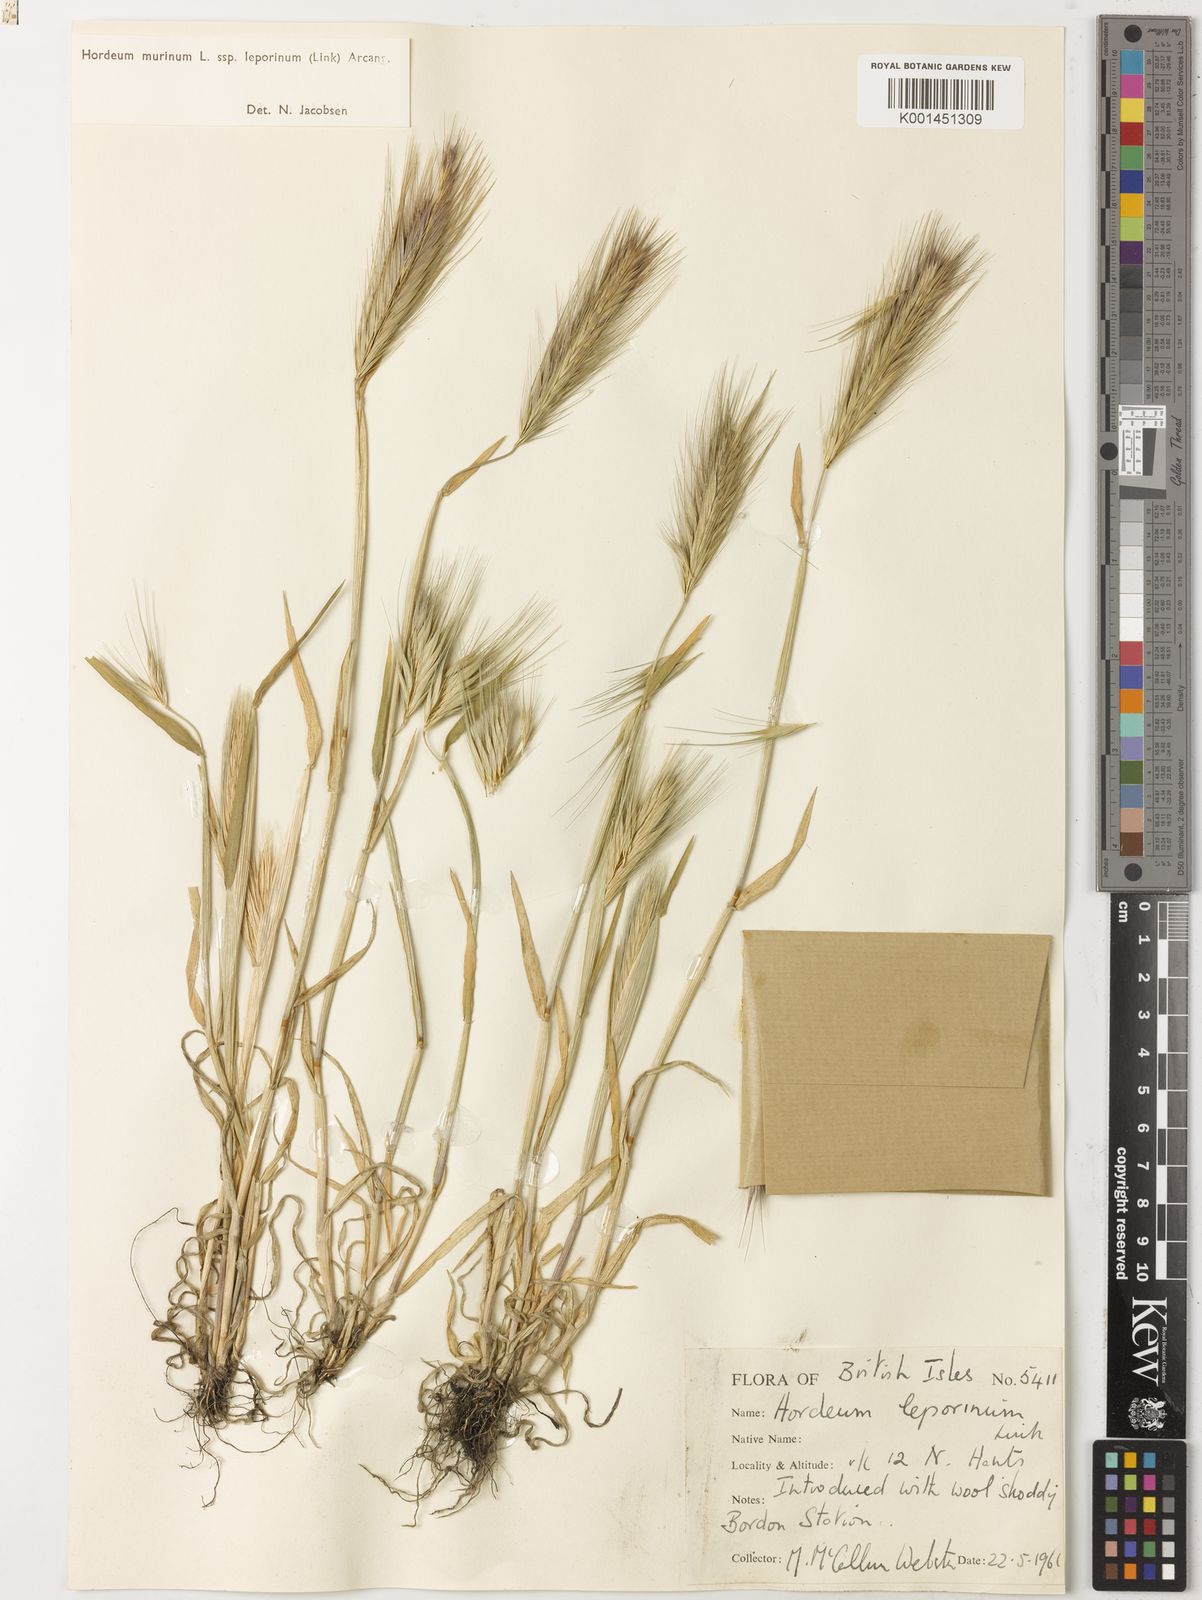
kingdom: Plantae
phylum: Tracheophyta
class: Liliopsida
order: Poales
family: Poaceae
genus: Hordeum
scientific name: Hordeum murinum
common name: Wall barley
